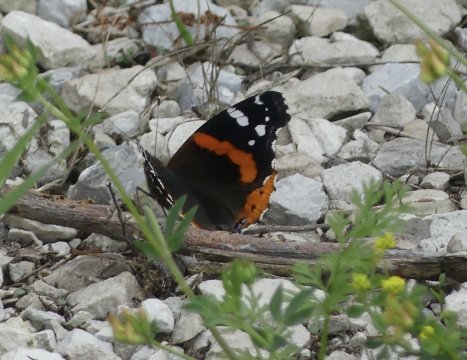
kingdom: Animalia
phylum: Arthropoda
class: Insecta
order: Lepidoptera
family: Nymphalidae
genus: Vanessa
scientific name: Vanessa atalanta
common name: Red Admiral
